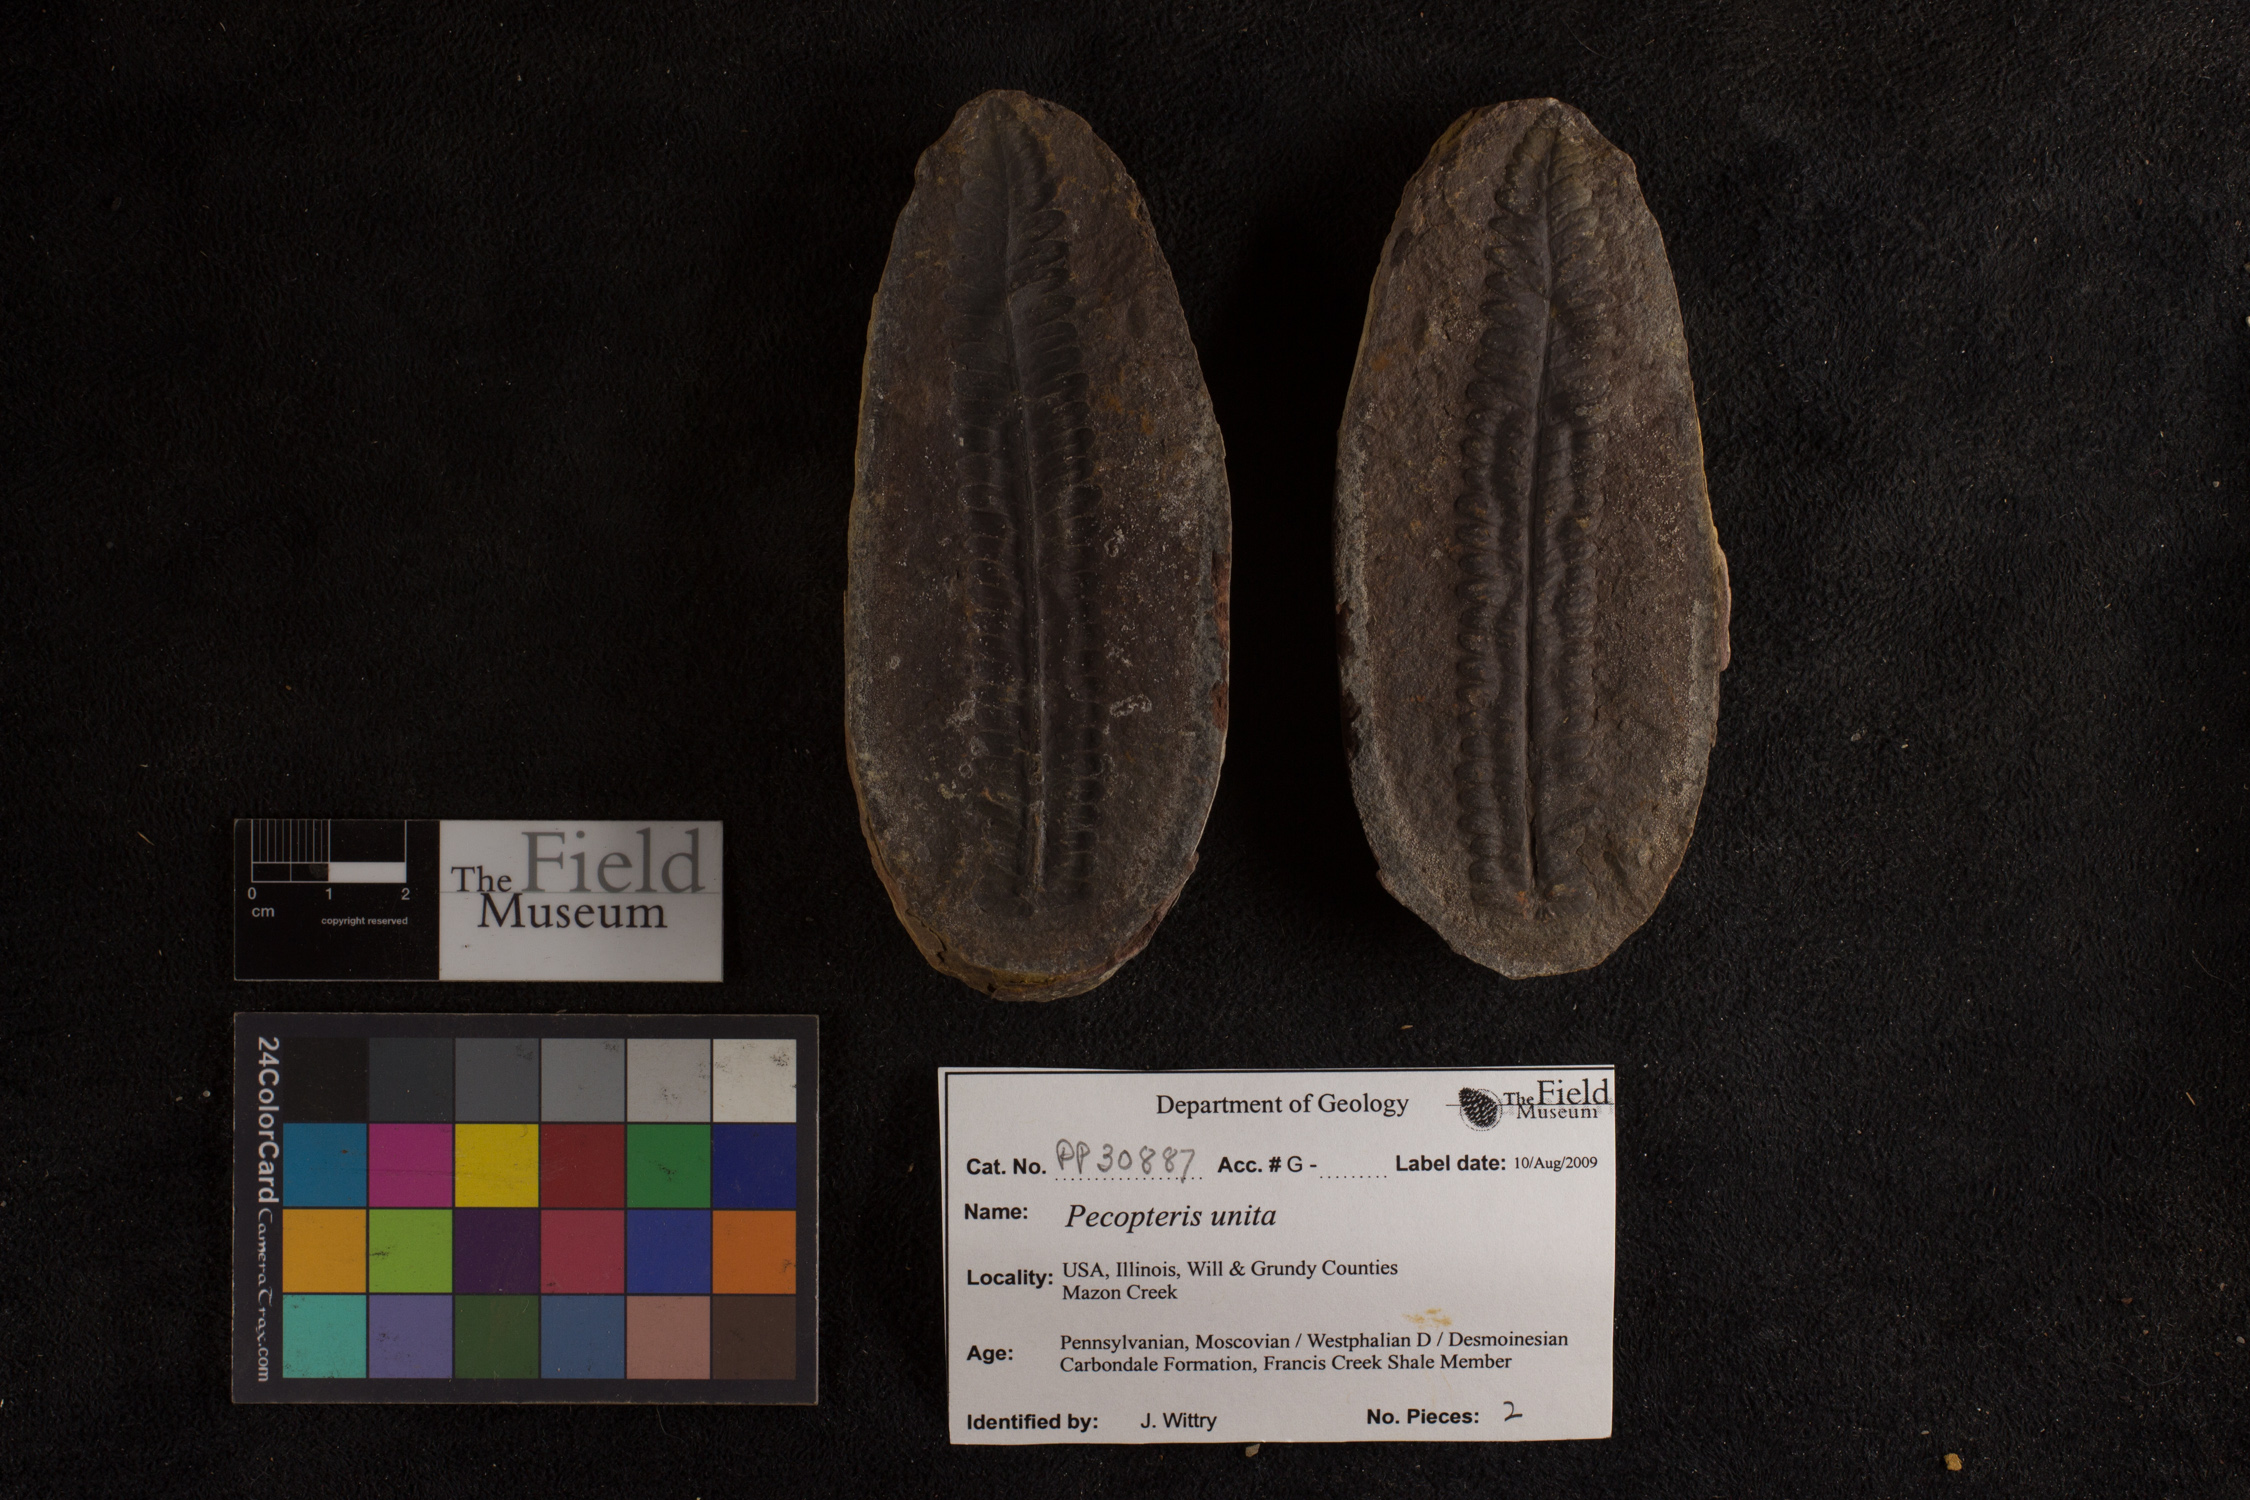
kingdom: Plantae
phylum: Tracheophyta
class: Polypodiopsida
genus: Diplazites
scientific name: Diplazites
